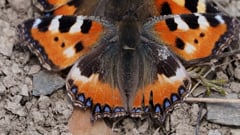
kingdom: Animalia
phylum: Arthropoda
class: Insecta
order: Lepidoptera
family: Nymphalidae
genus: Aglais
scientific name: Aglais urticae
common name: Small tortoiseshell
